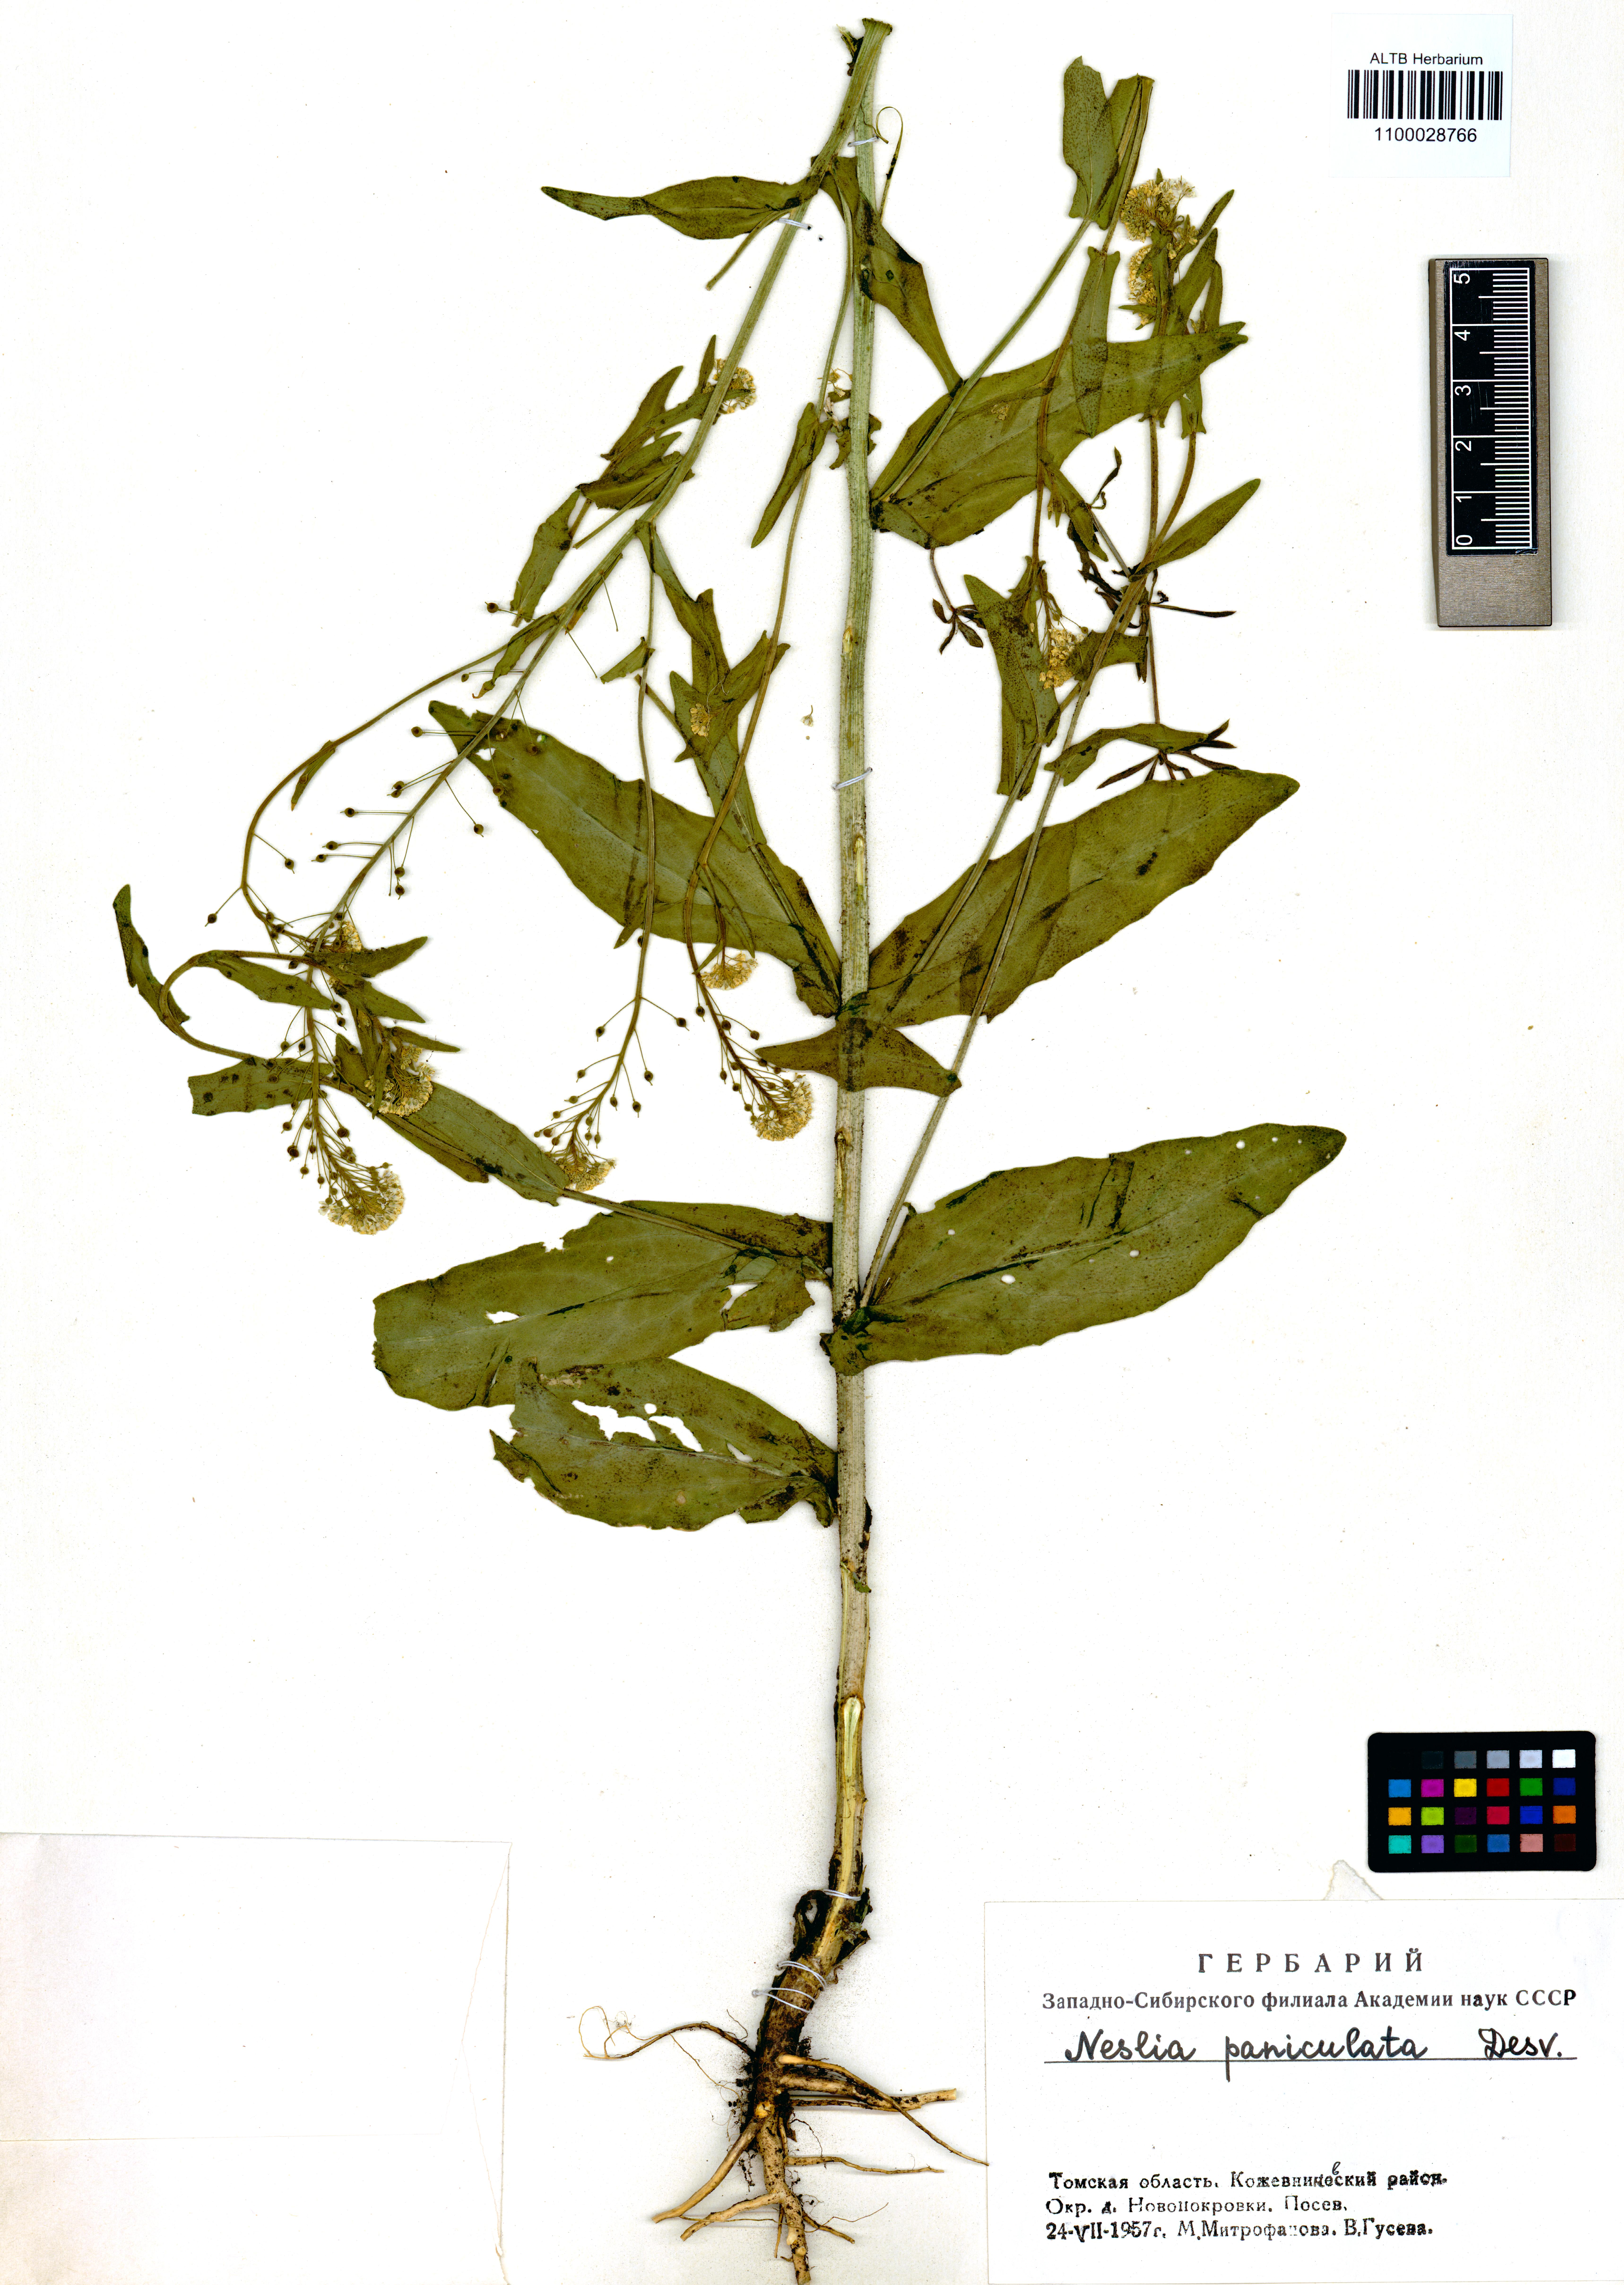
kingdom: Plantae
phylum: Tracheophyta
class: Magnoliopsida
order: Brassicales
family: Brassicaceae
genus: Neslia
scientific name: Neslia paniculata
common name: Ball mustard
